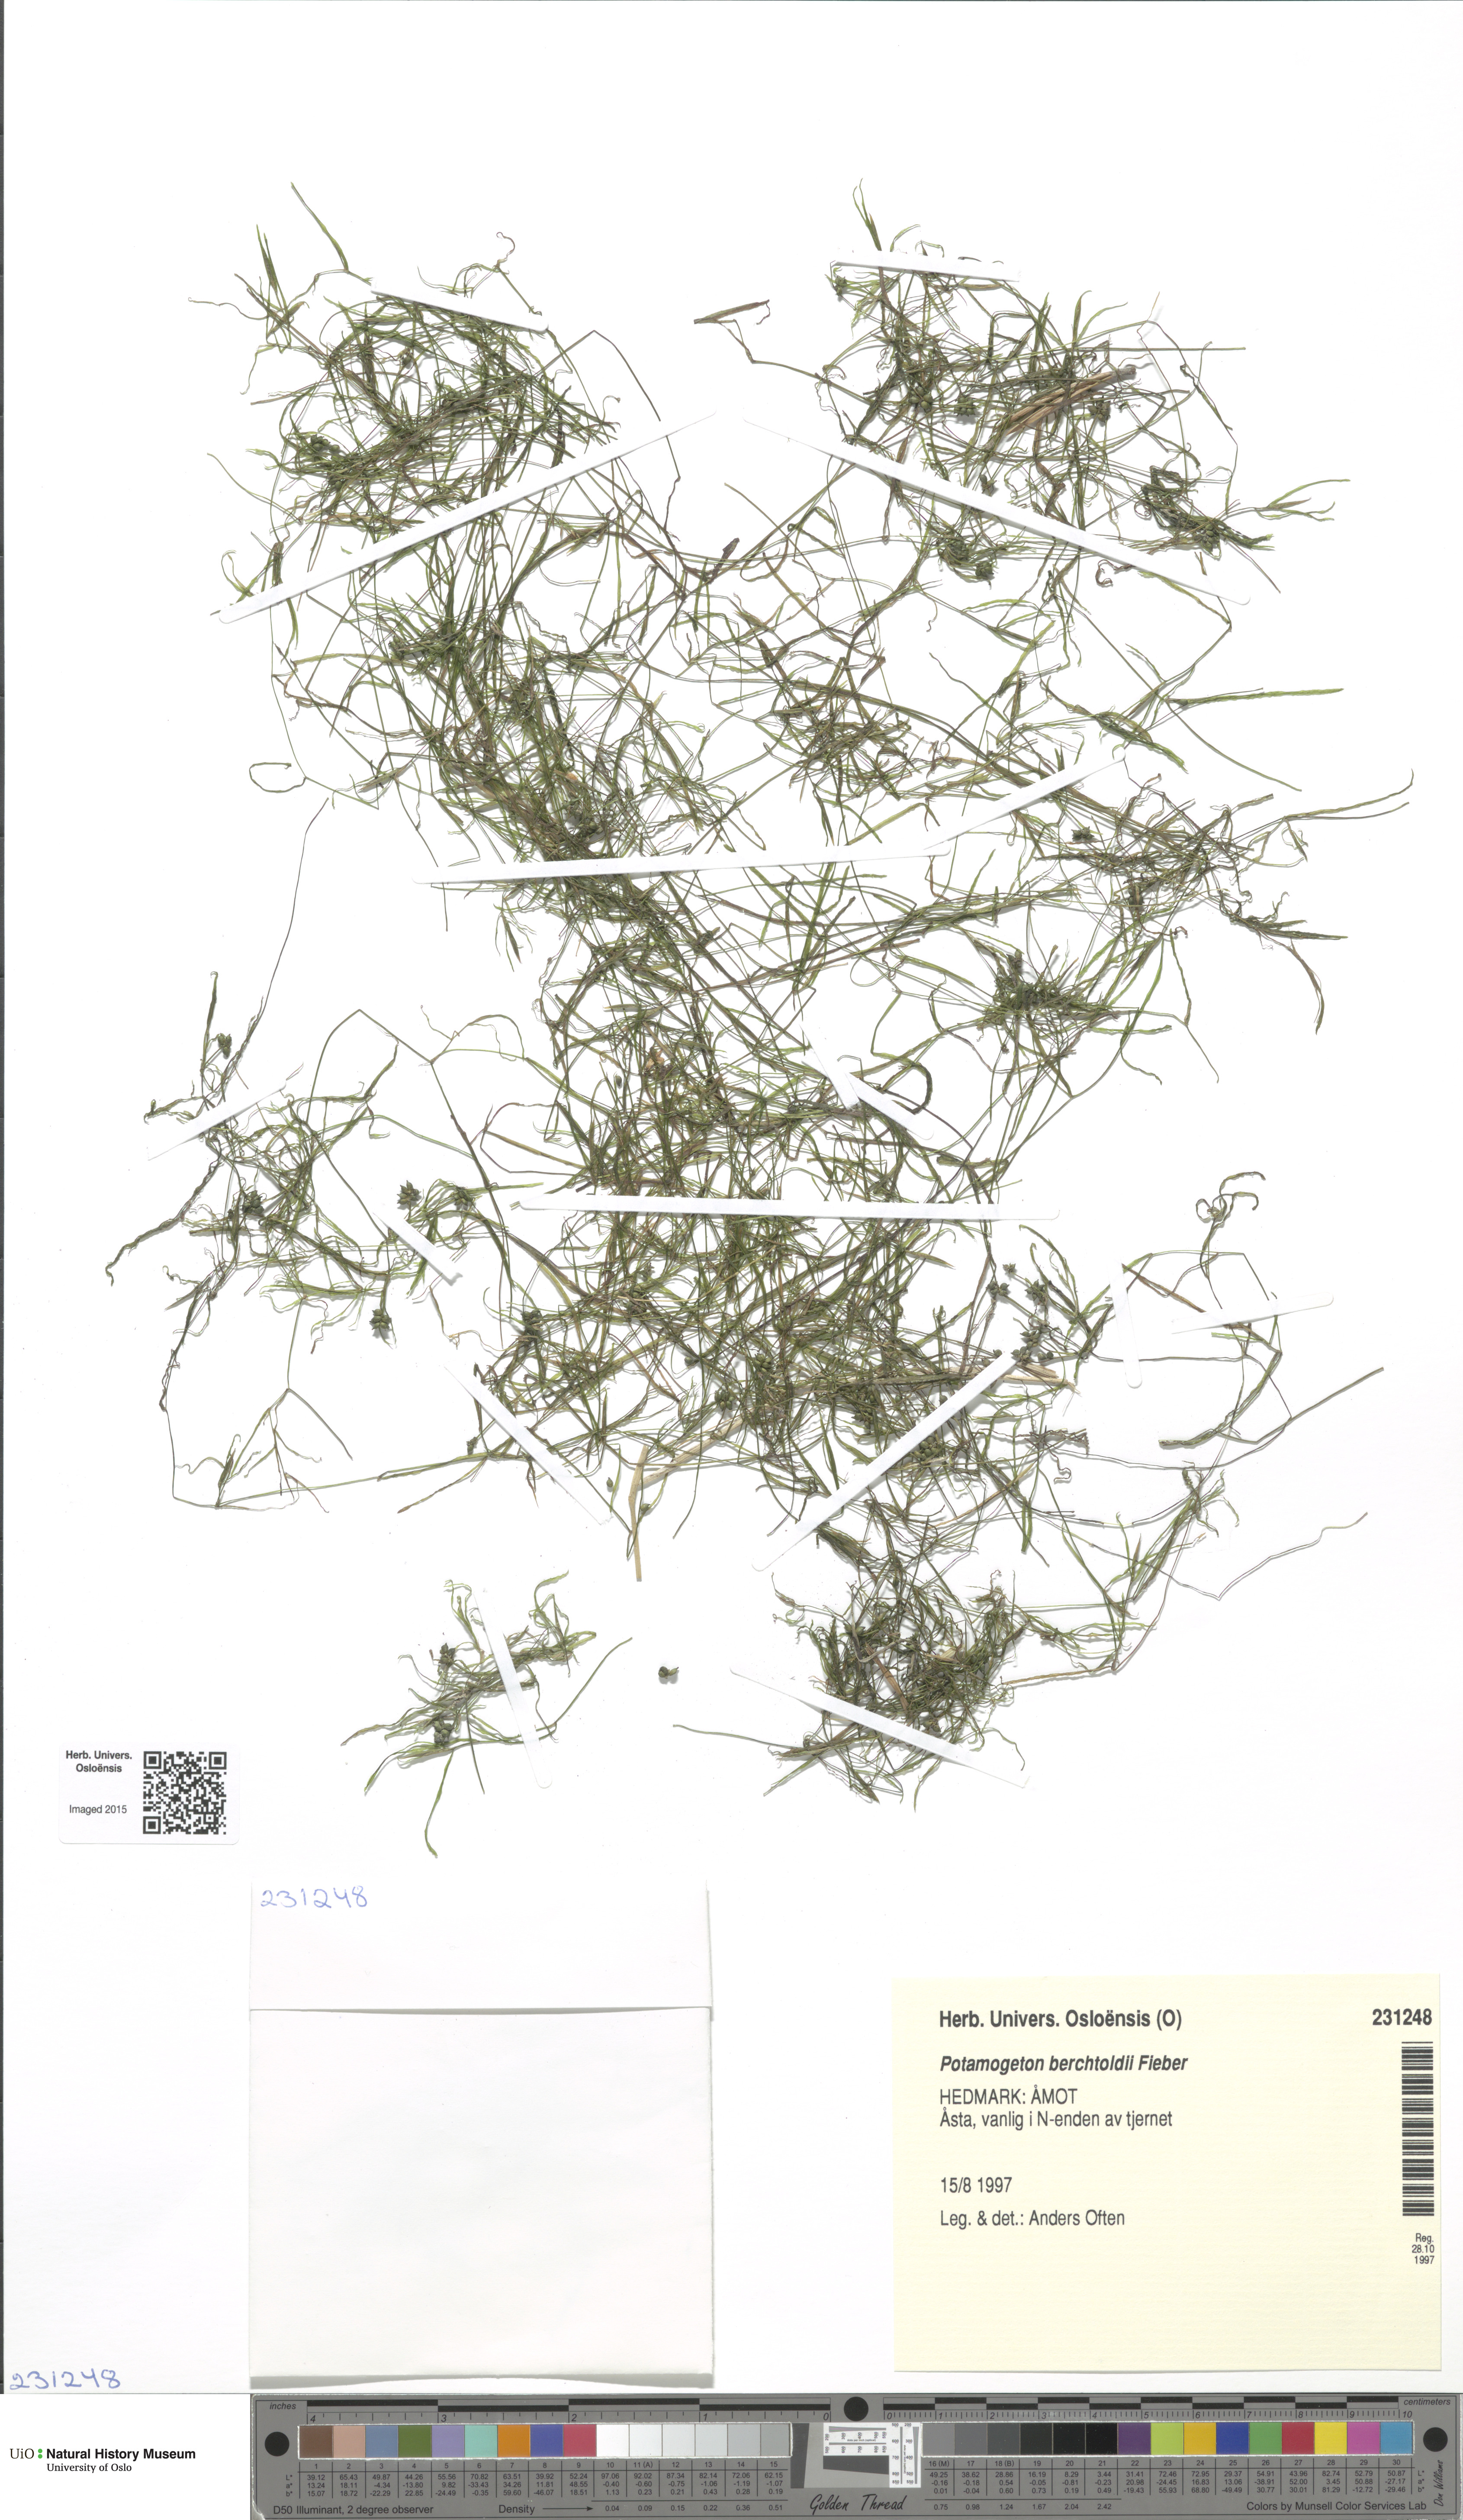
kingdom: Plantae
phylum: Tracheophyta
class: Liliopsida
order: Alismatales
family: Potamogetonaceae
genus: Potamogeton
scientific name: Potamogeton berchtoldii
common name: Small pondweed
